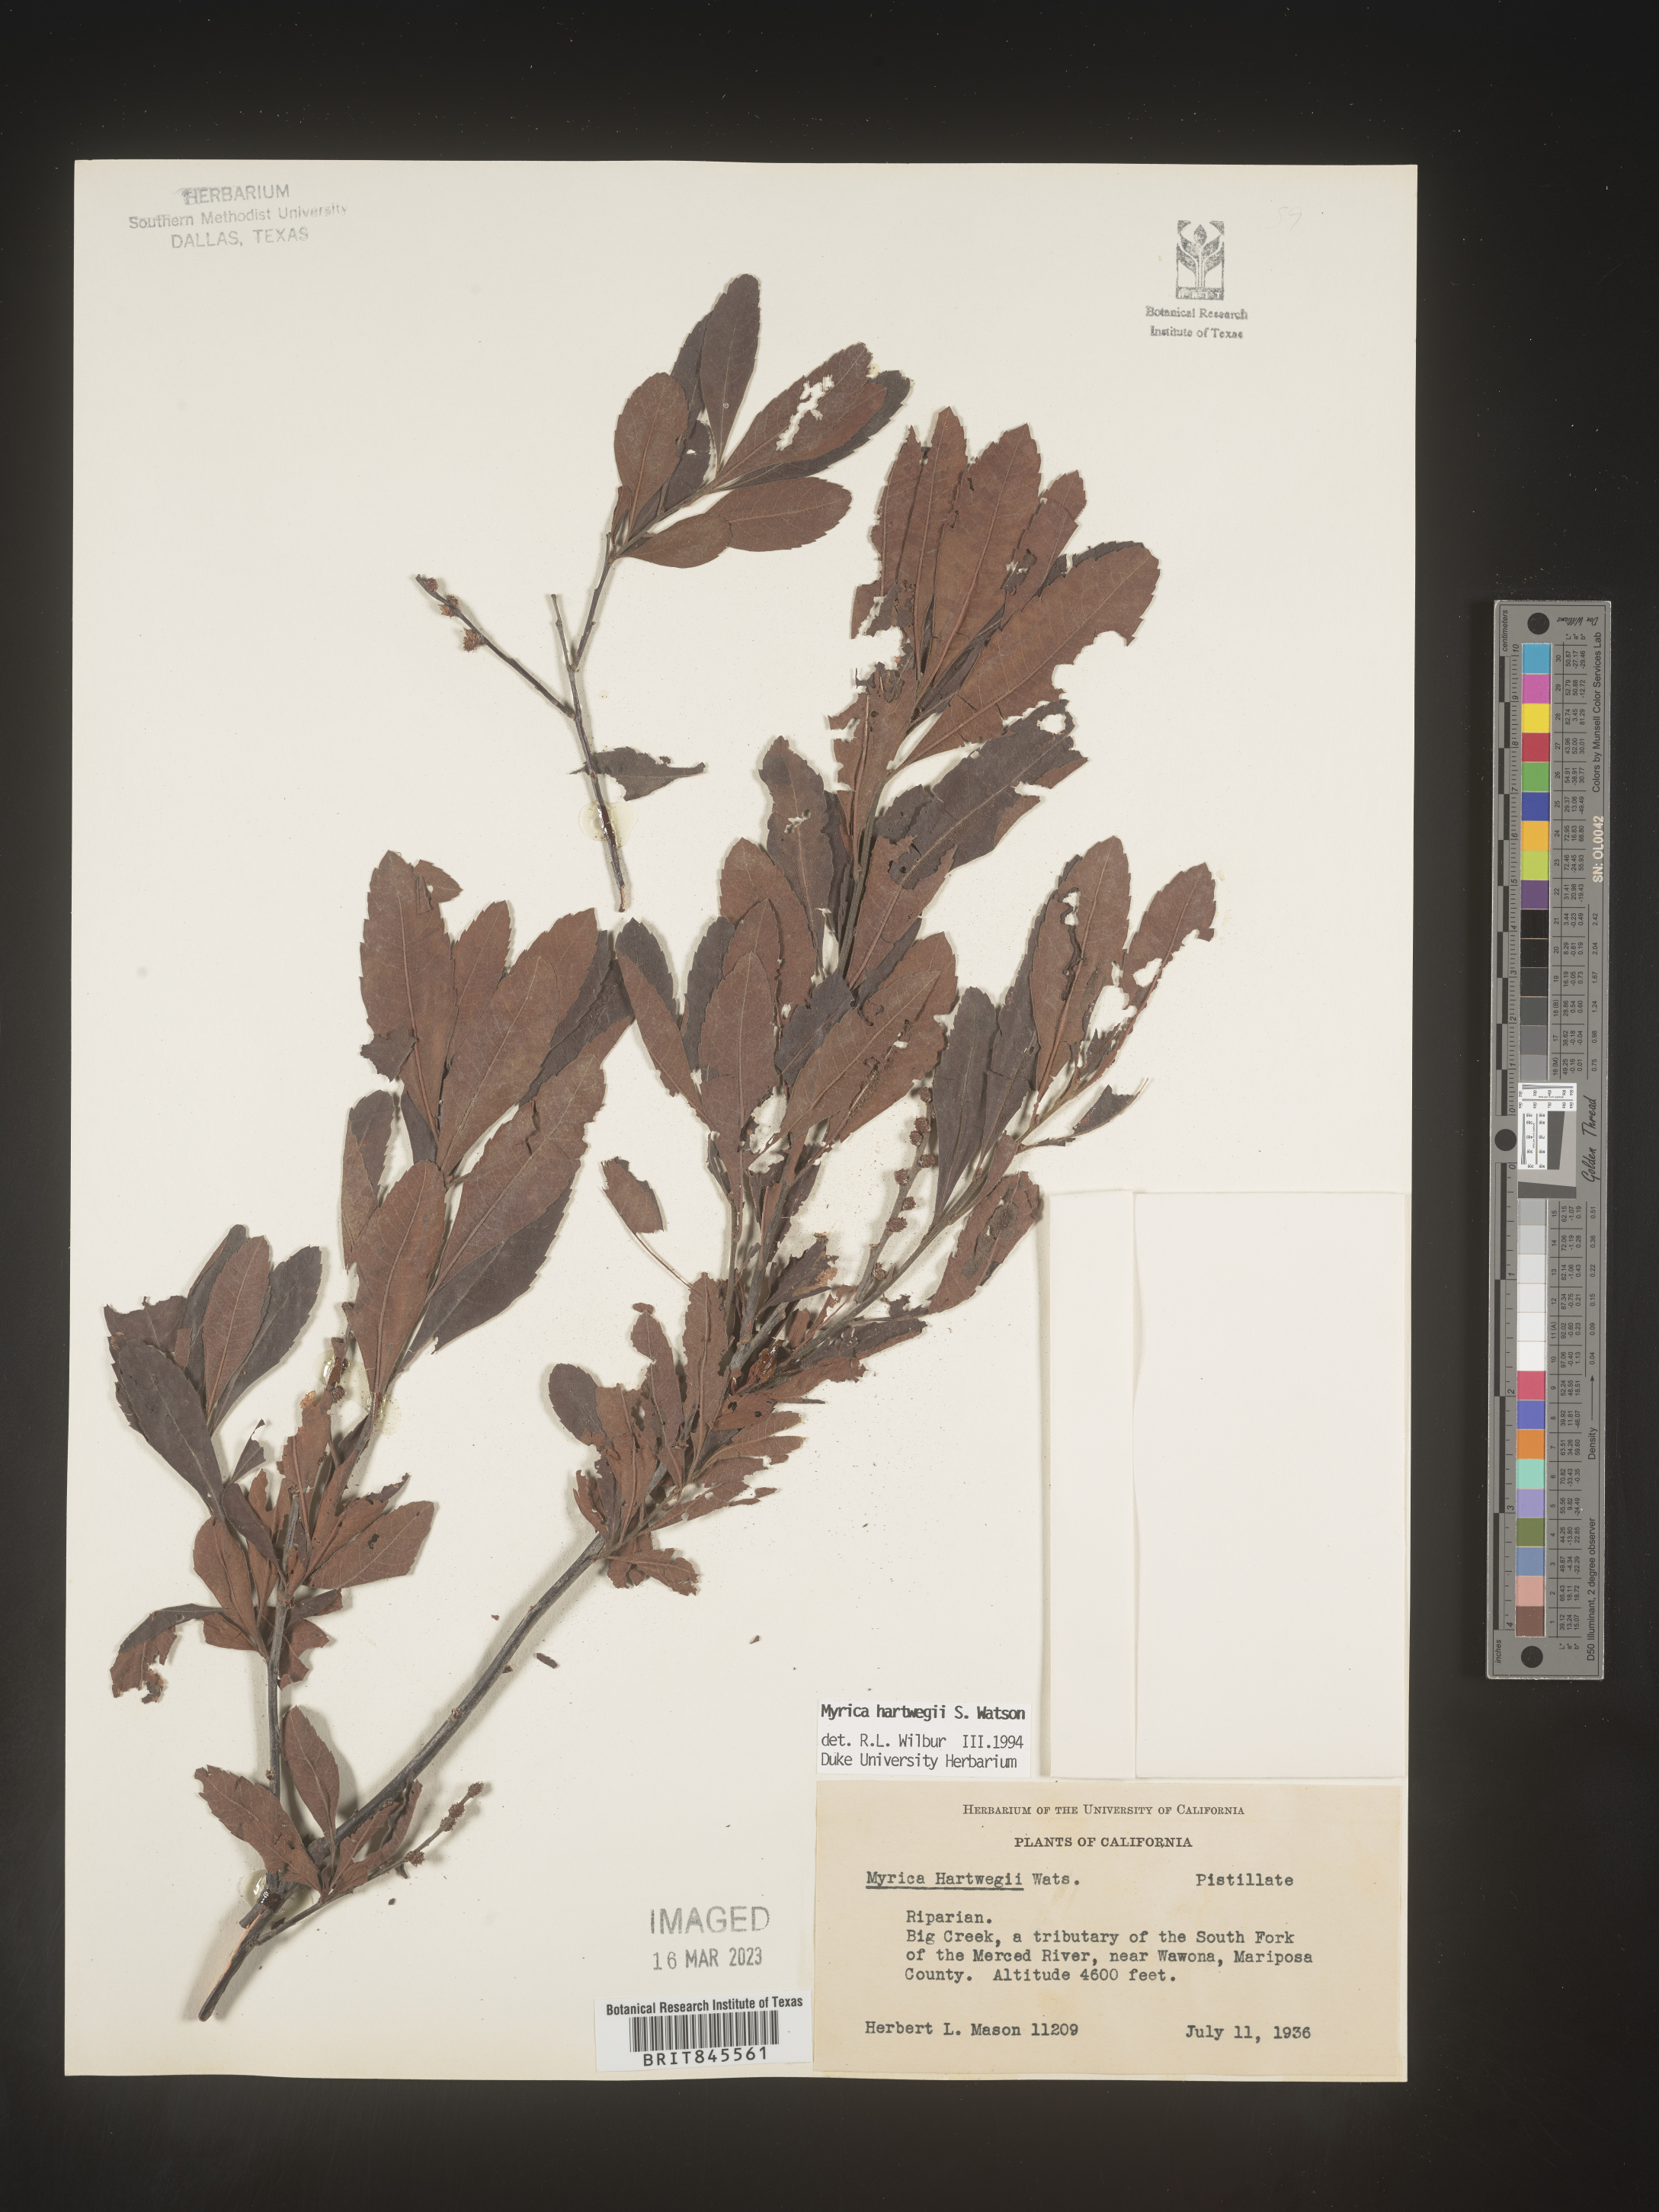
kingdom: Plantae
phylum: Tracheophyta
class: Magnoliopsida
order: Fagales
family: Myricaceae
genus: Myrica
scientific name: Myrica
